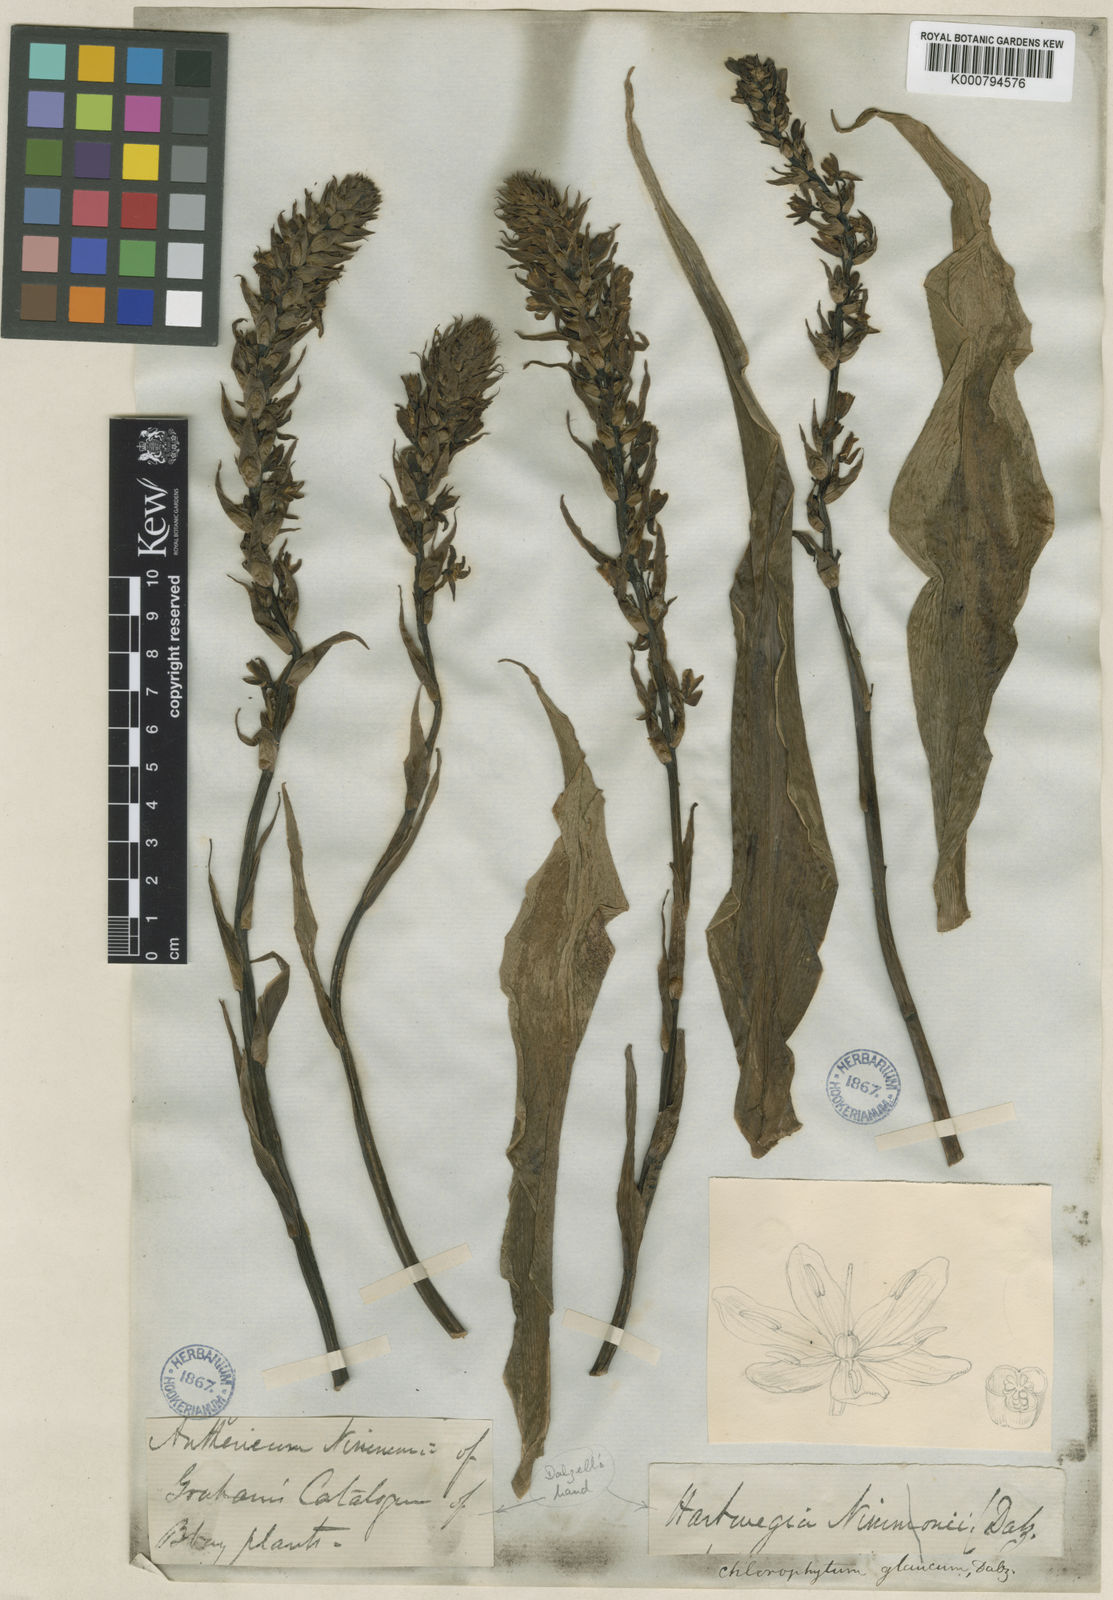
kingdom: Plantae
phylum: Tracheophyta
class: Liliopsida
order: Asparagales
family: Asparagaceae
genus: Chlorophytum
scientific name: Chlorophytum glaucum
